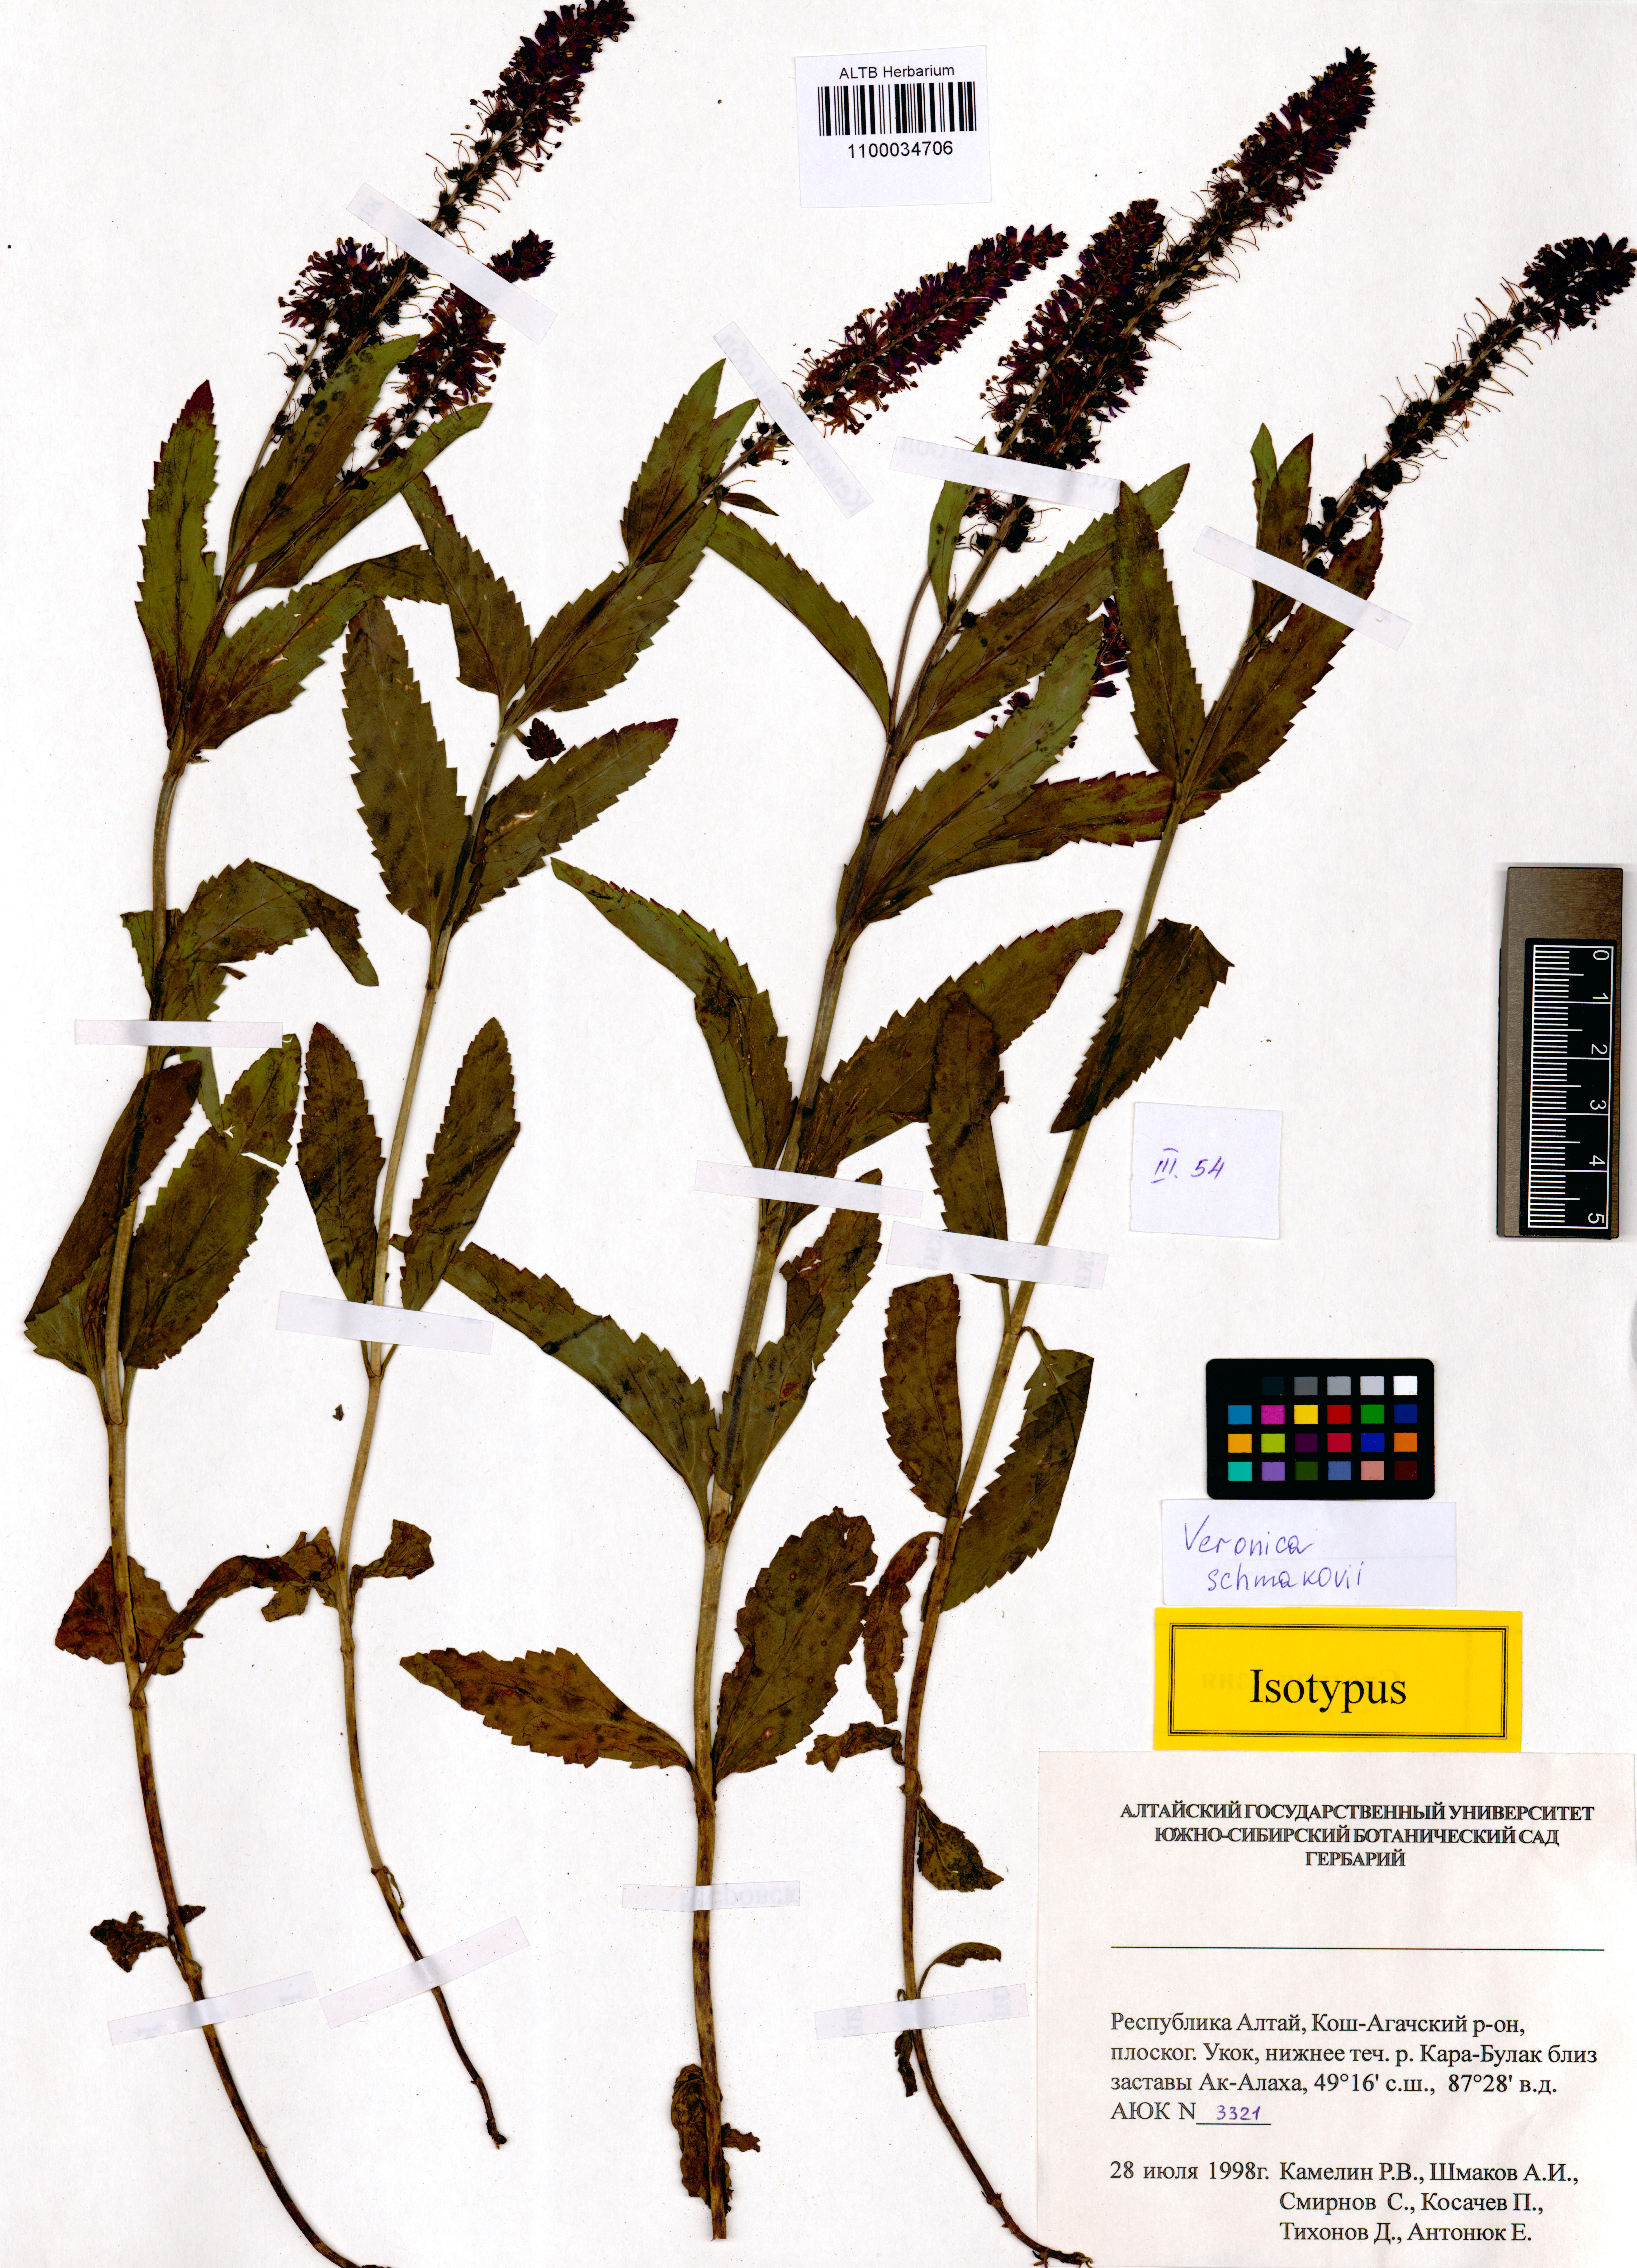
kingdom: Plantae
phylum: Tracheophyta
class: Magnoliopsida
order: Lamiales
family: Plantaginaceae
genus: Veronica
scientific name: Veronica schmakovii
